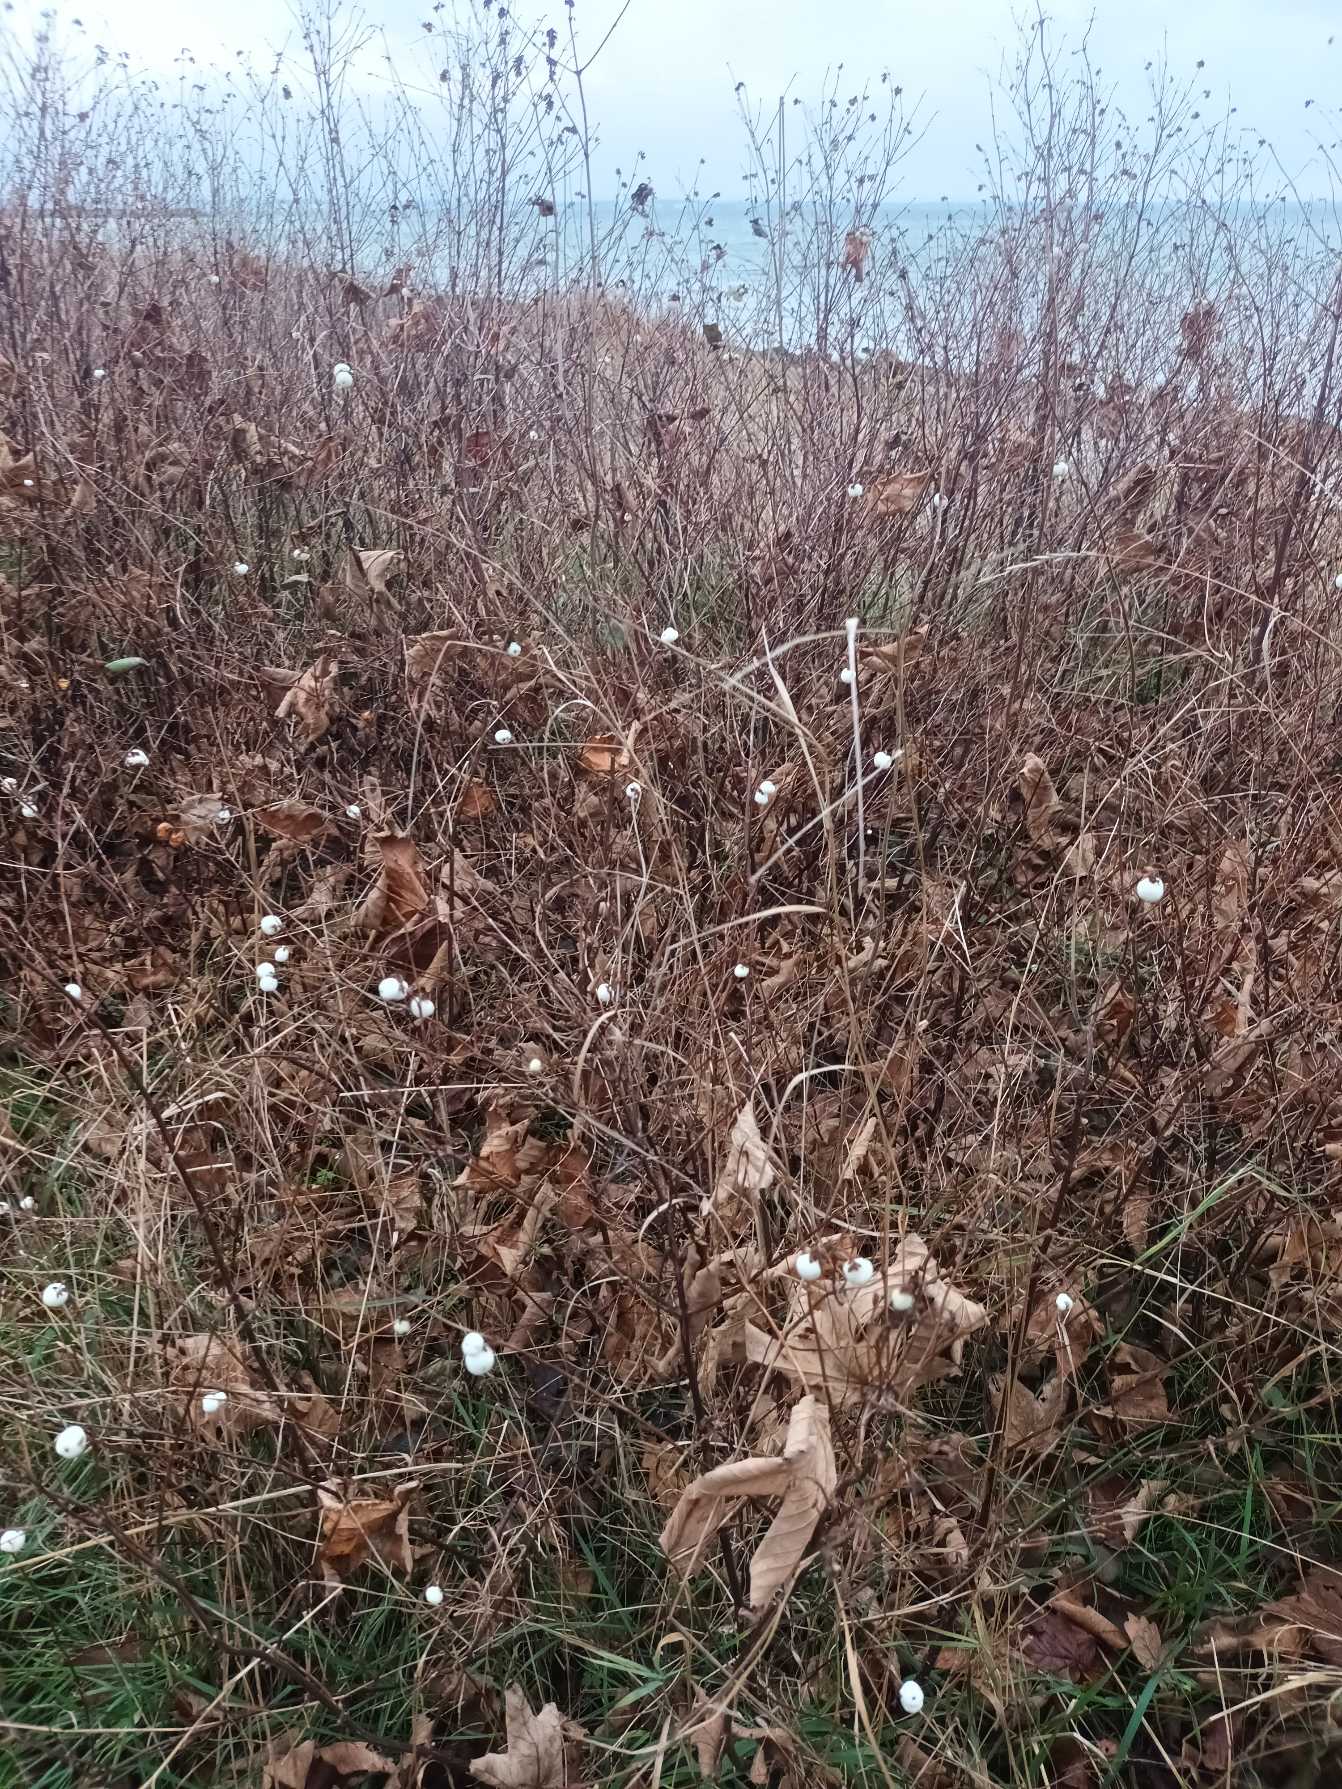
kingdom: Plantae
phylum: Tracheophyta
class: Magnoliopsida
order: Dipsacales
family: Caprifoliaceae
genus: Symphoricarpos
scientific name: Symphoricarpos albus
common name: Almindelig snebær
